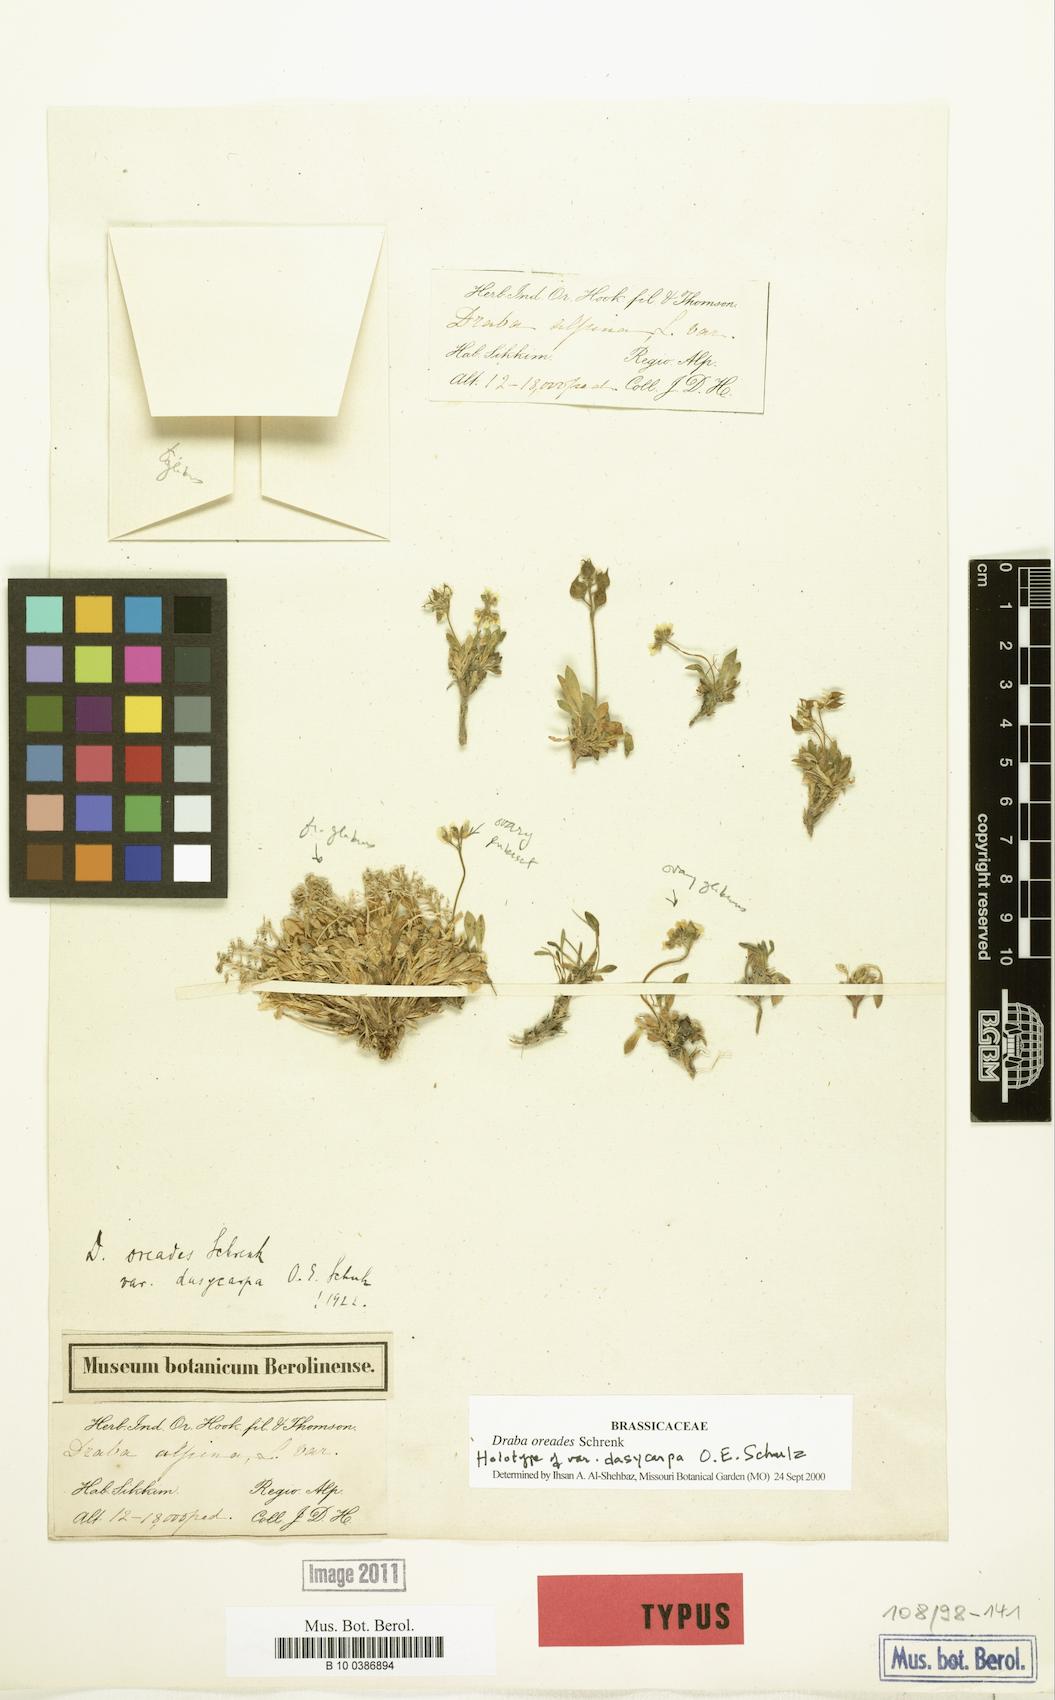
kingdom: Plantae
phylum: Tracheophyta
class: Magnoliopsida
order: Brassicales
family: Brassicaceae
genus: Draba
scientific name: Draba oreades
